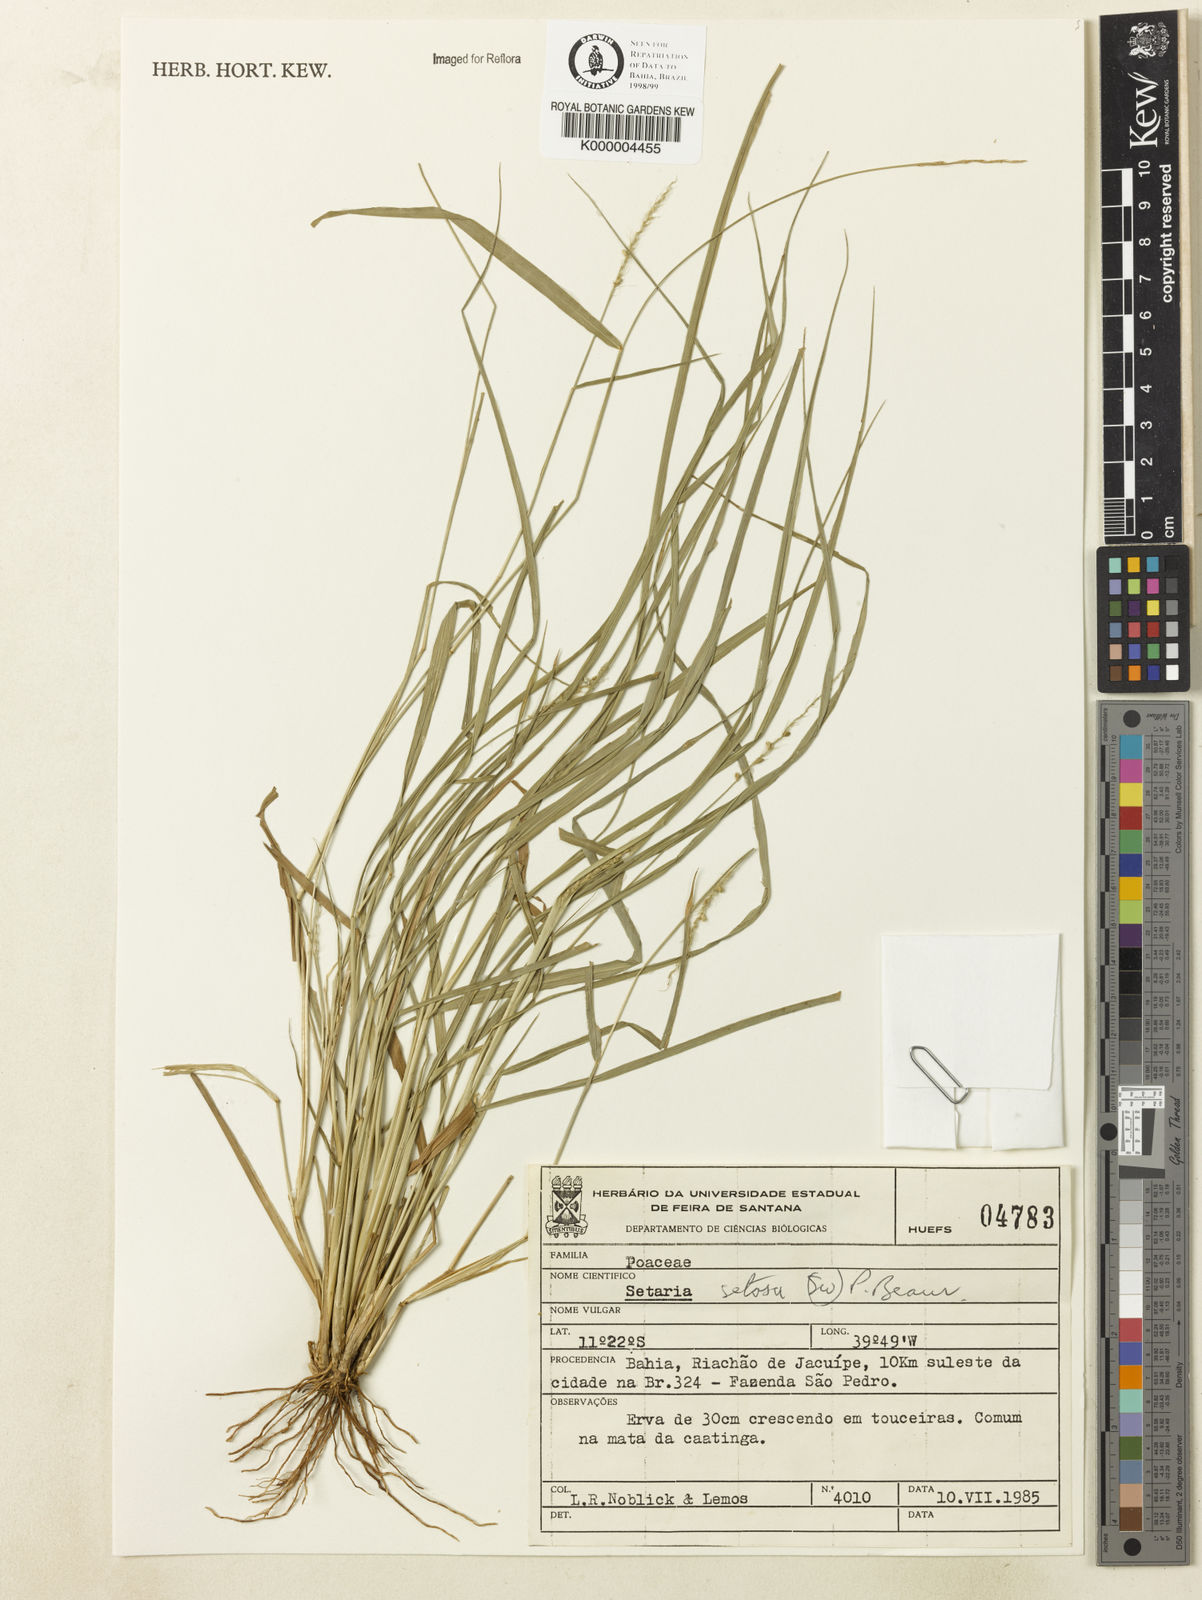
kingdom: Plantae
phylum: Tracheophyta
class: Liliopsida
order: Poales
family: Poaceae
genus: Setaria
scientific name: Setaria setosa
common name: West indies bristle grass
